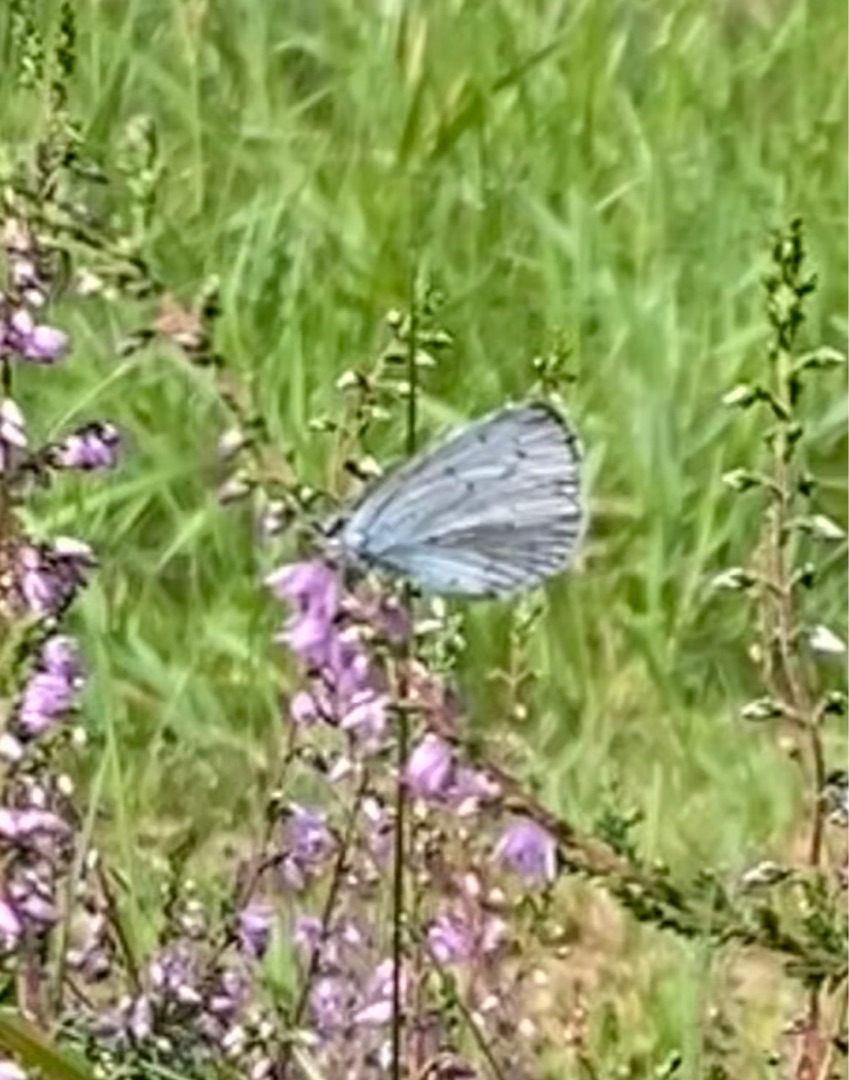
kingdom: Animalia
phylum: Arthropoda
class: Insecta
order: Lepidoptera
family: Lycaenidae
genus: Celastrina
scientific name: Celastrina argiolus
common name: Skovblåfugl
